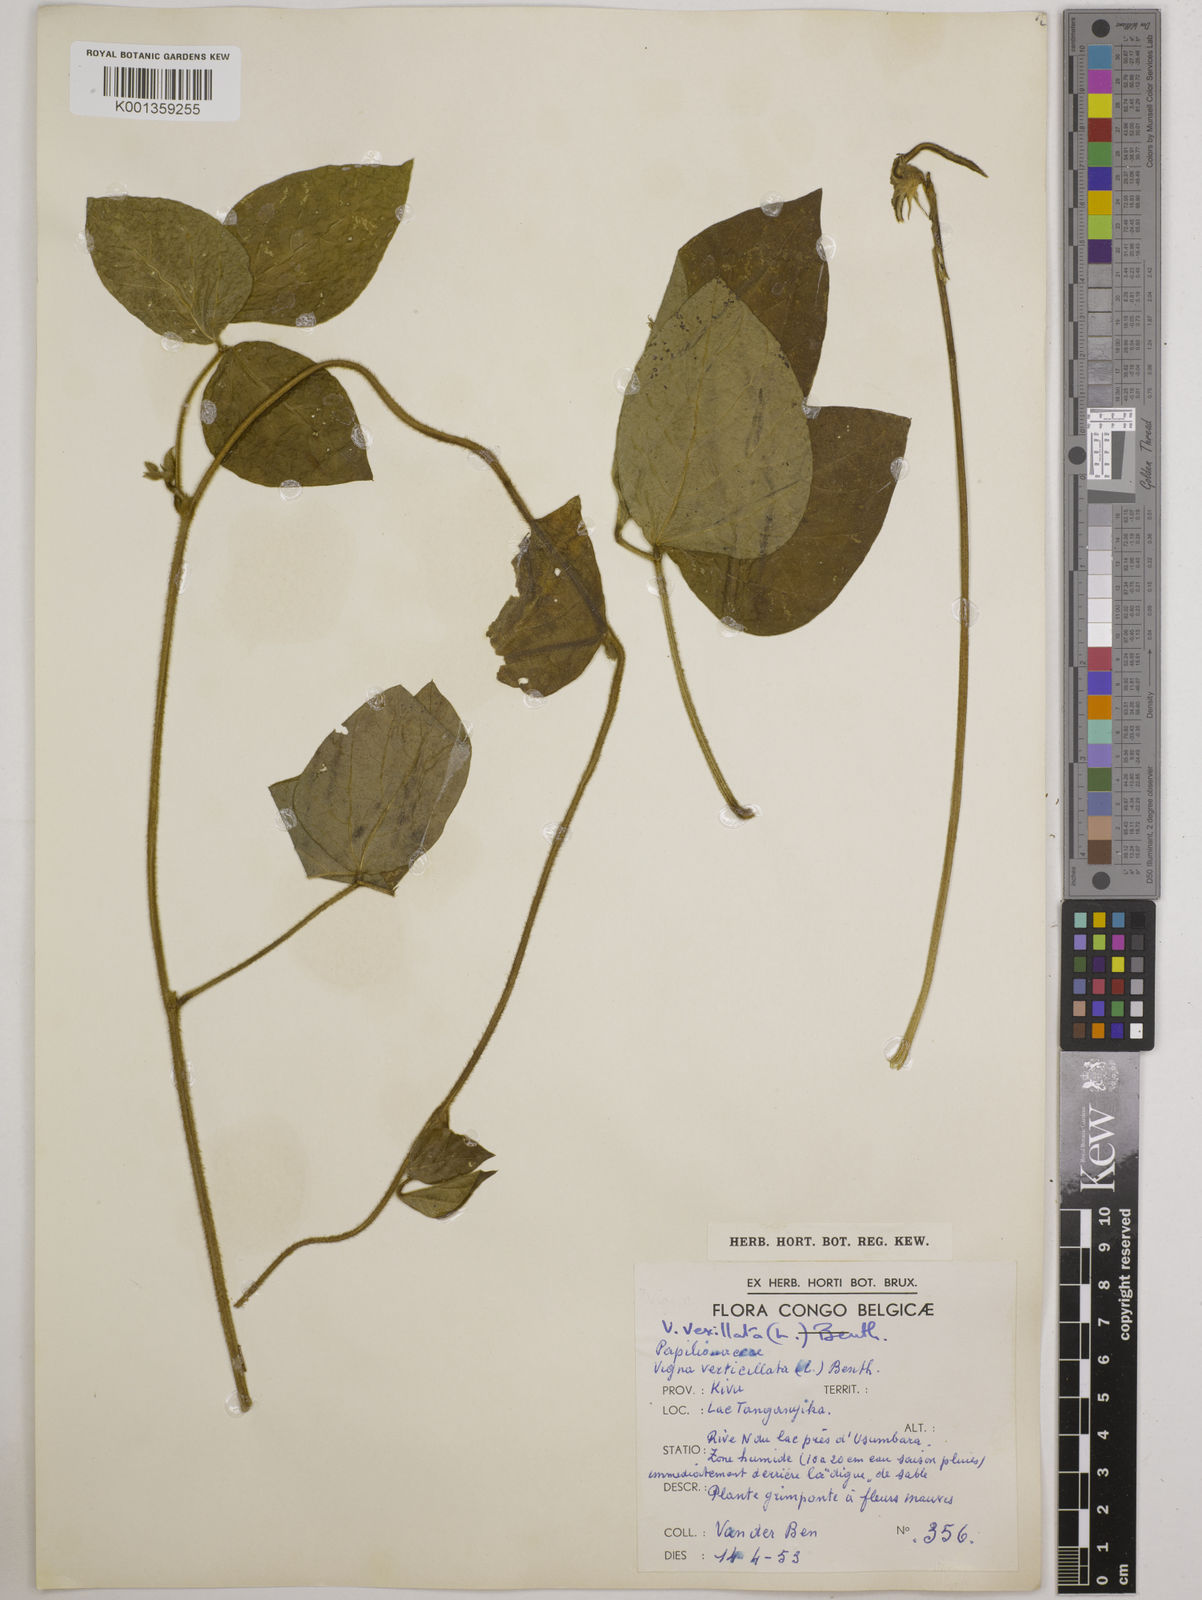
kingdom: Plantae
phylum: Tracheophyta
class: Magnoliopsida
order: Fabales
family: Fabaceae
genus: Vigna
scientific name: Vigna vexillata
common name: Zombi pea
